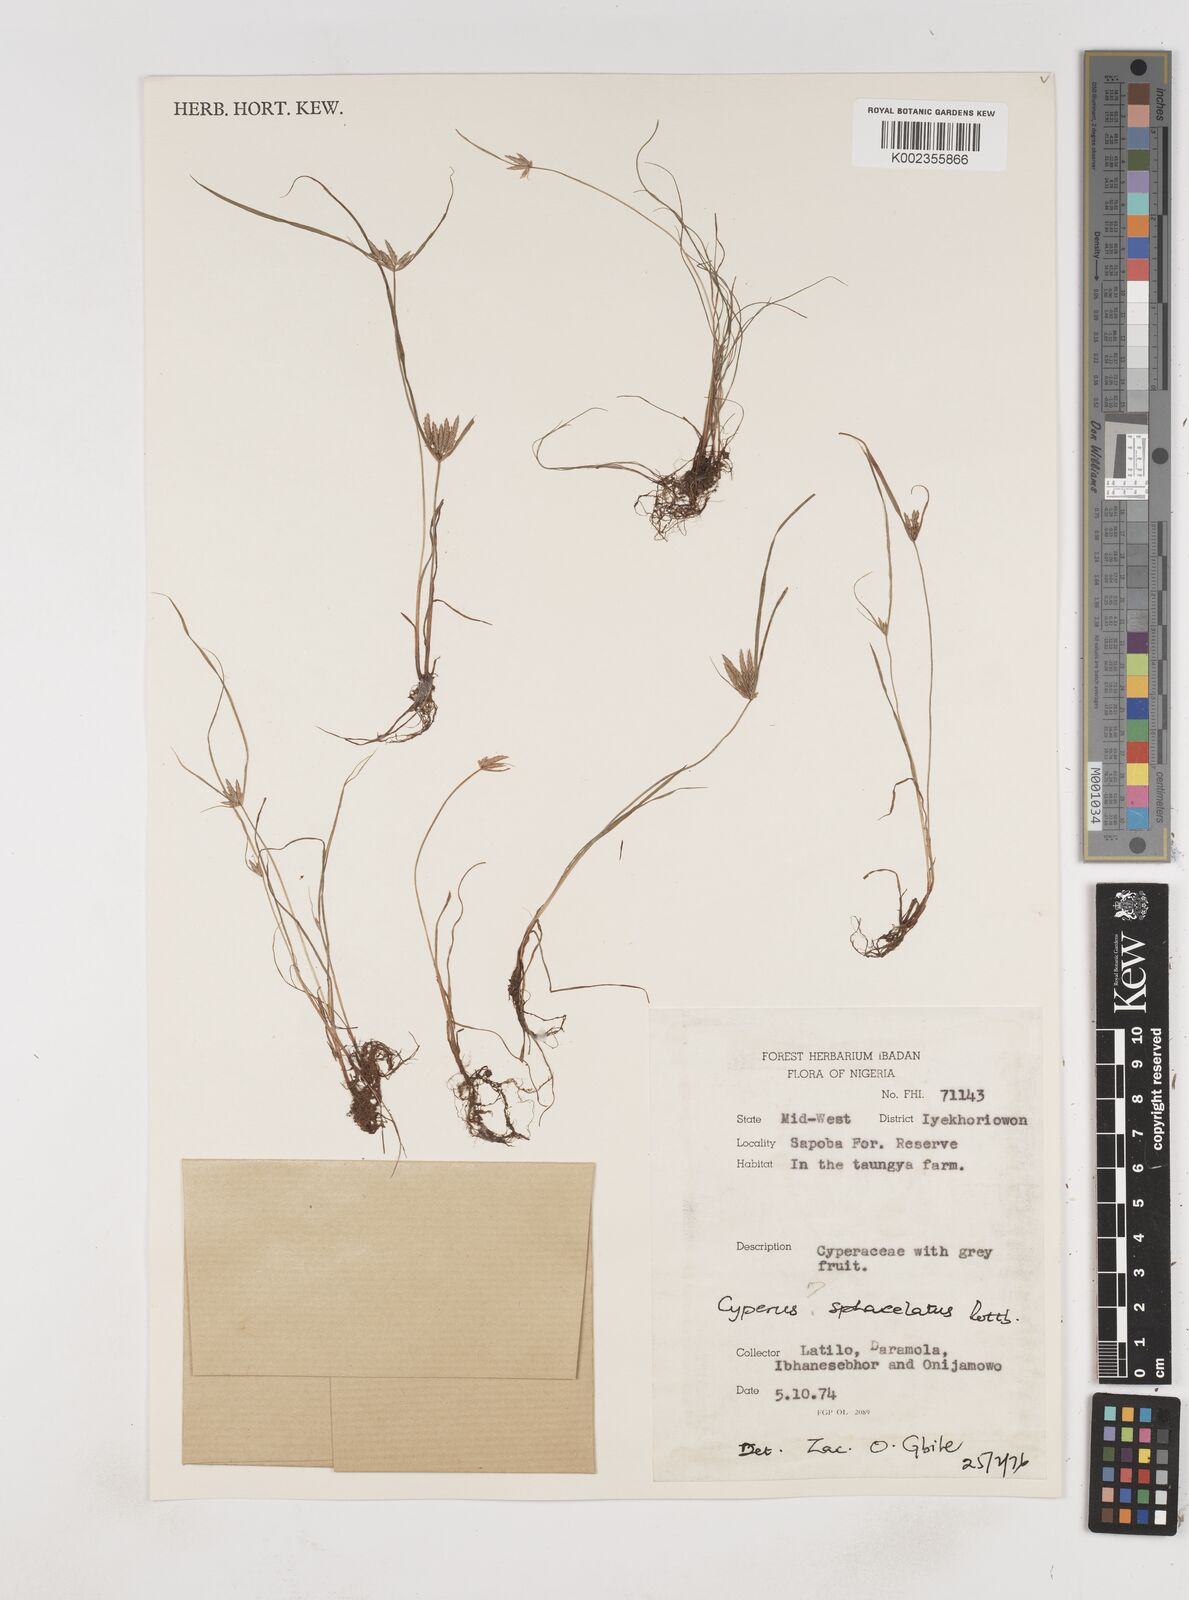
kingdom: Plantae
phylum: Tracheophyta
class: Liliopsida
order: Poales
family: Cyperaceae
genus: Cyperus
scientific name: Cyperus sphacelatus
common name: Roadside flatsedge
